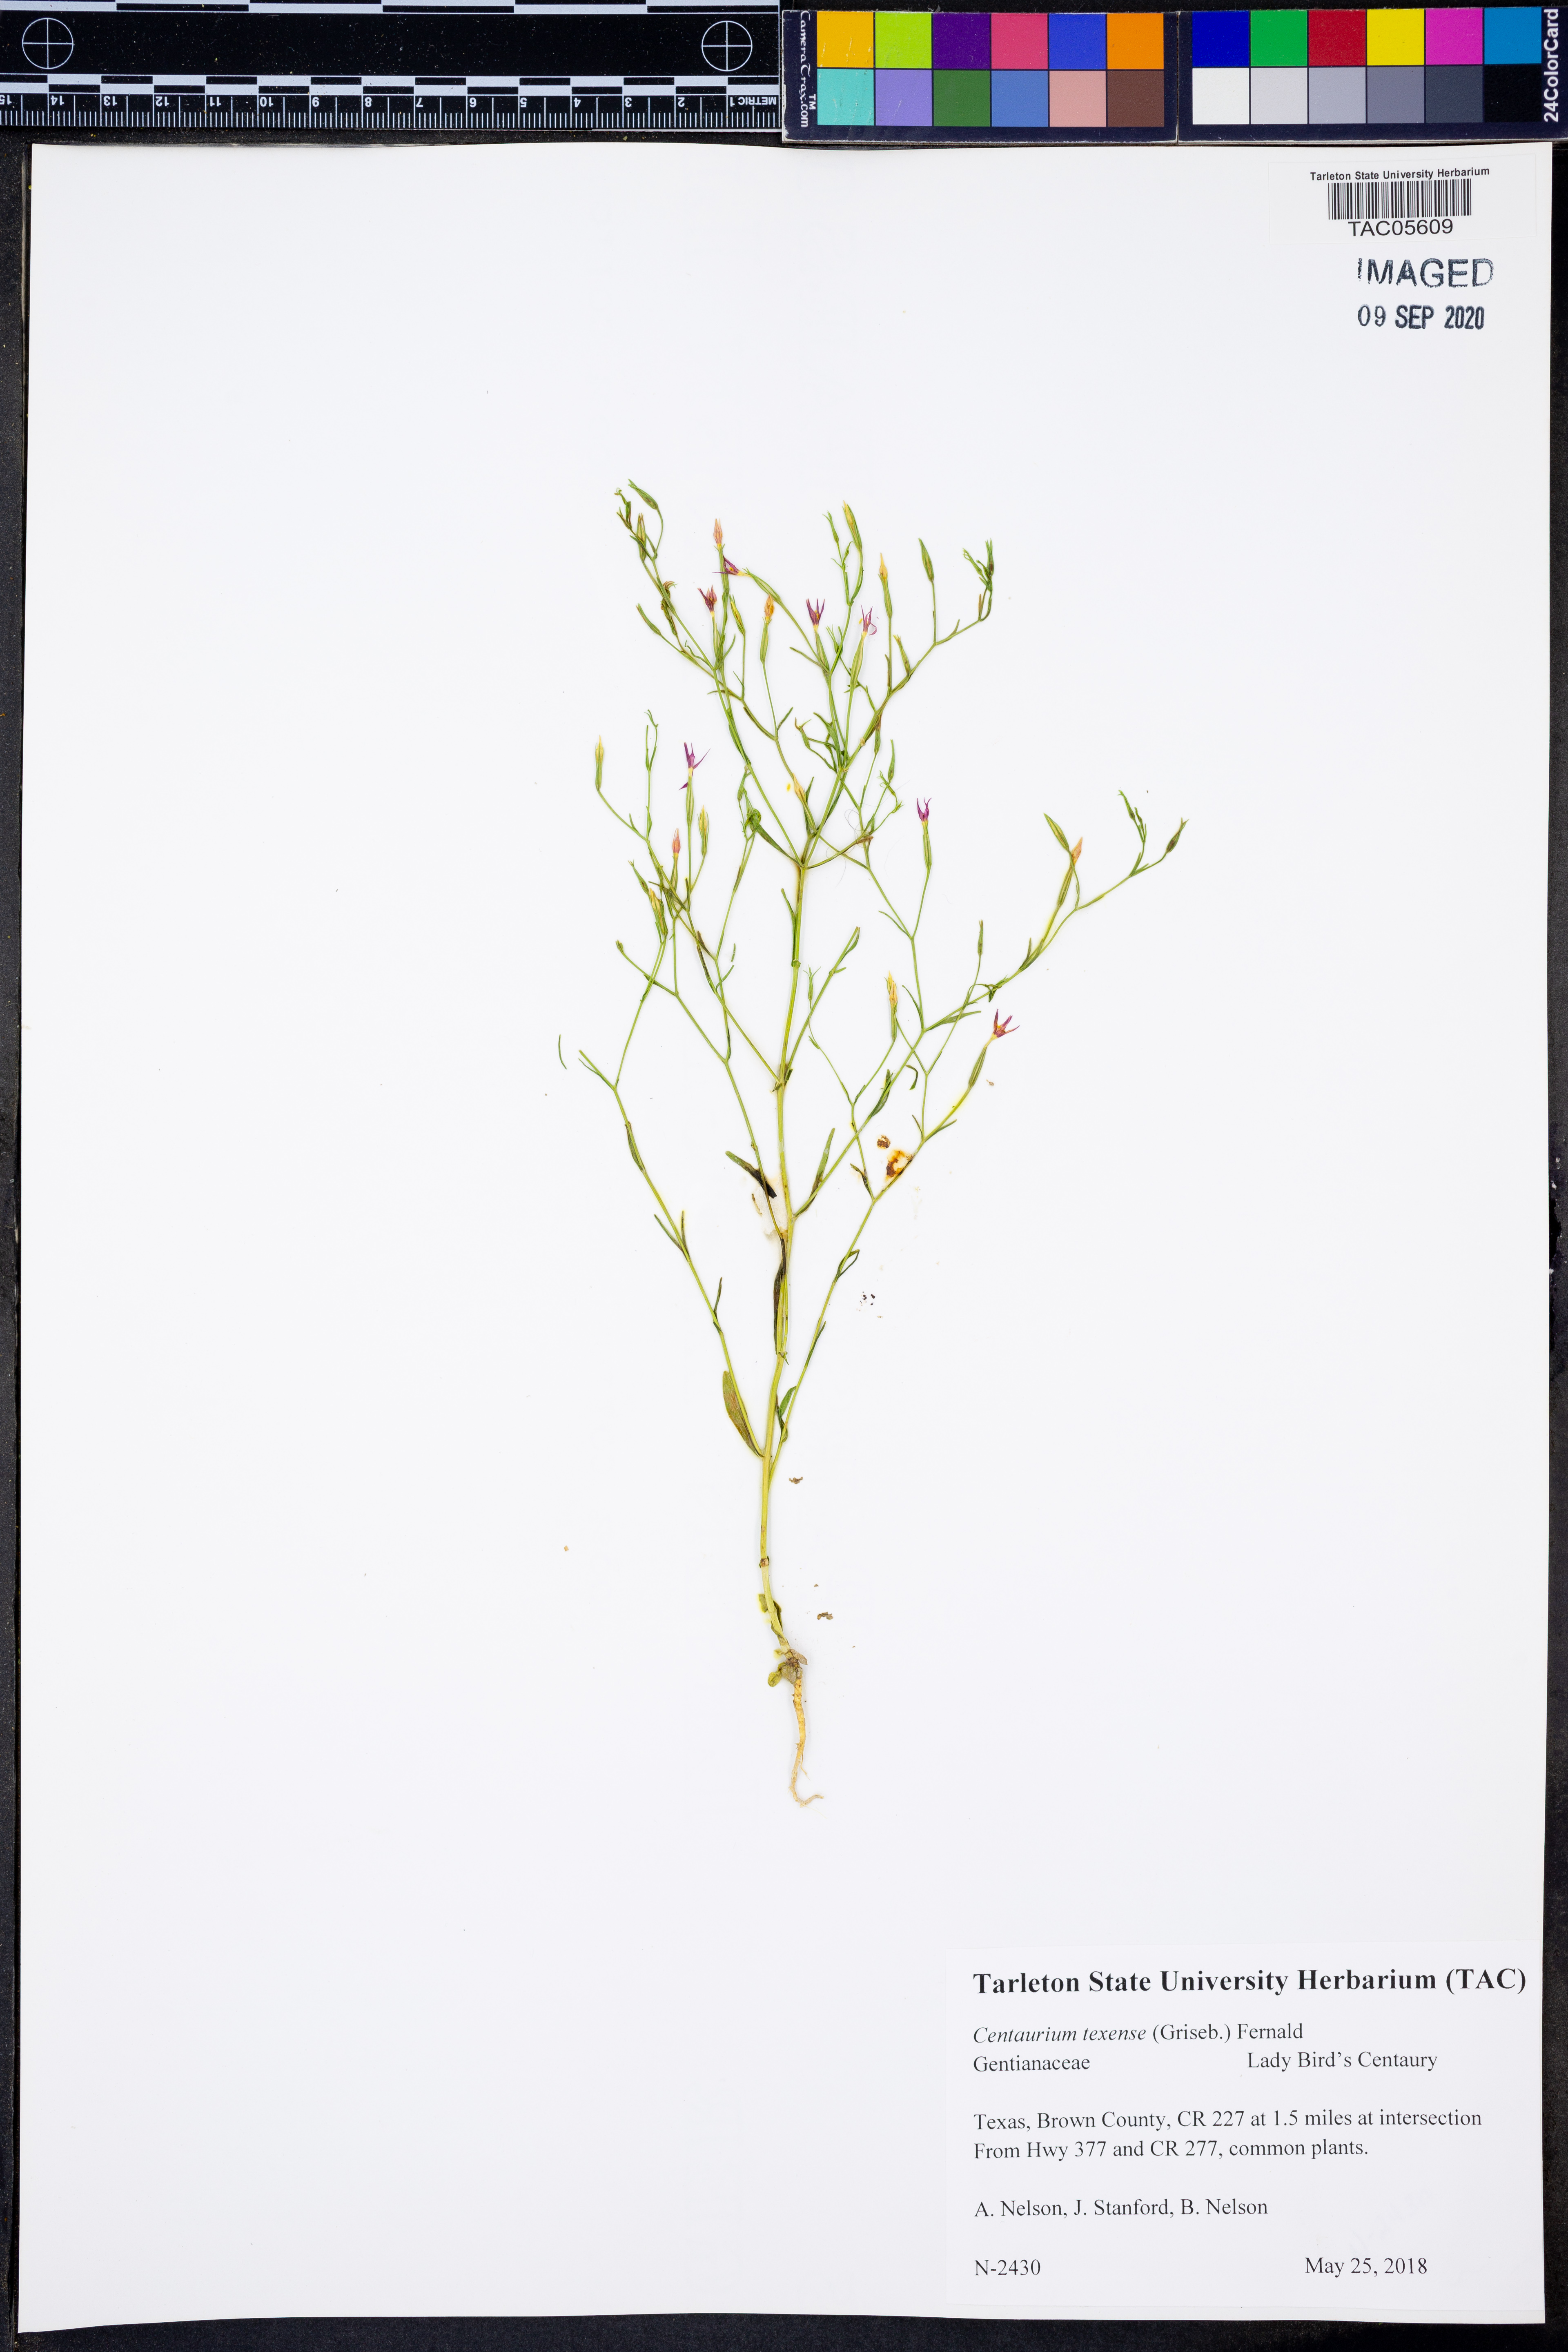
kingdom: Plantae
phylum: Tracheophyta
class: Magnoliopsida
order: Gentianales
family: Gentianaceae
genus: Zeltnera
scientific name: Zeltnera texensis
